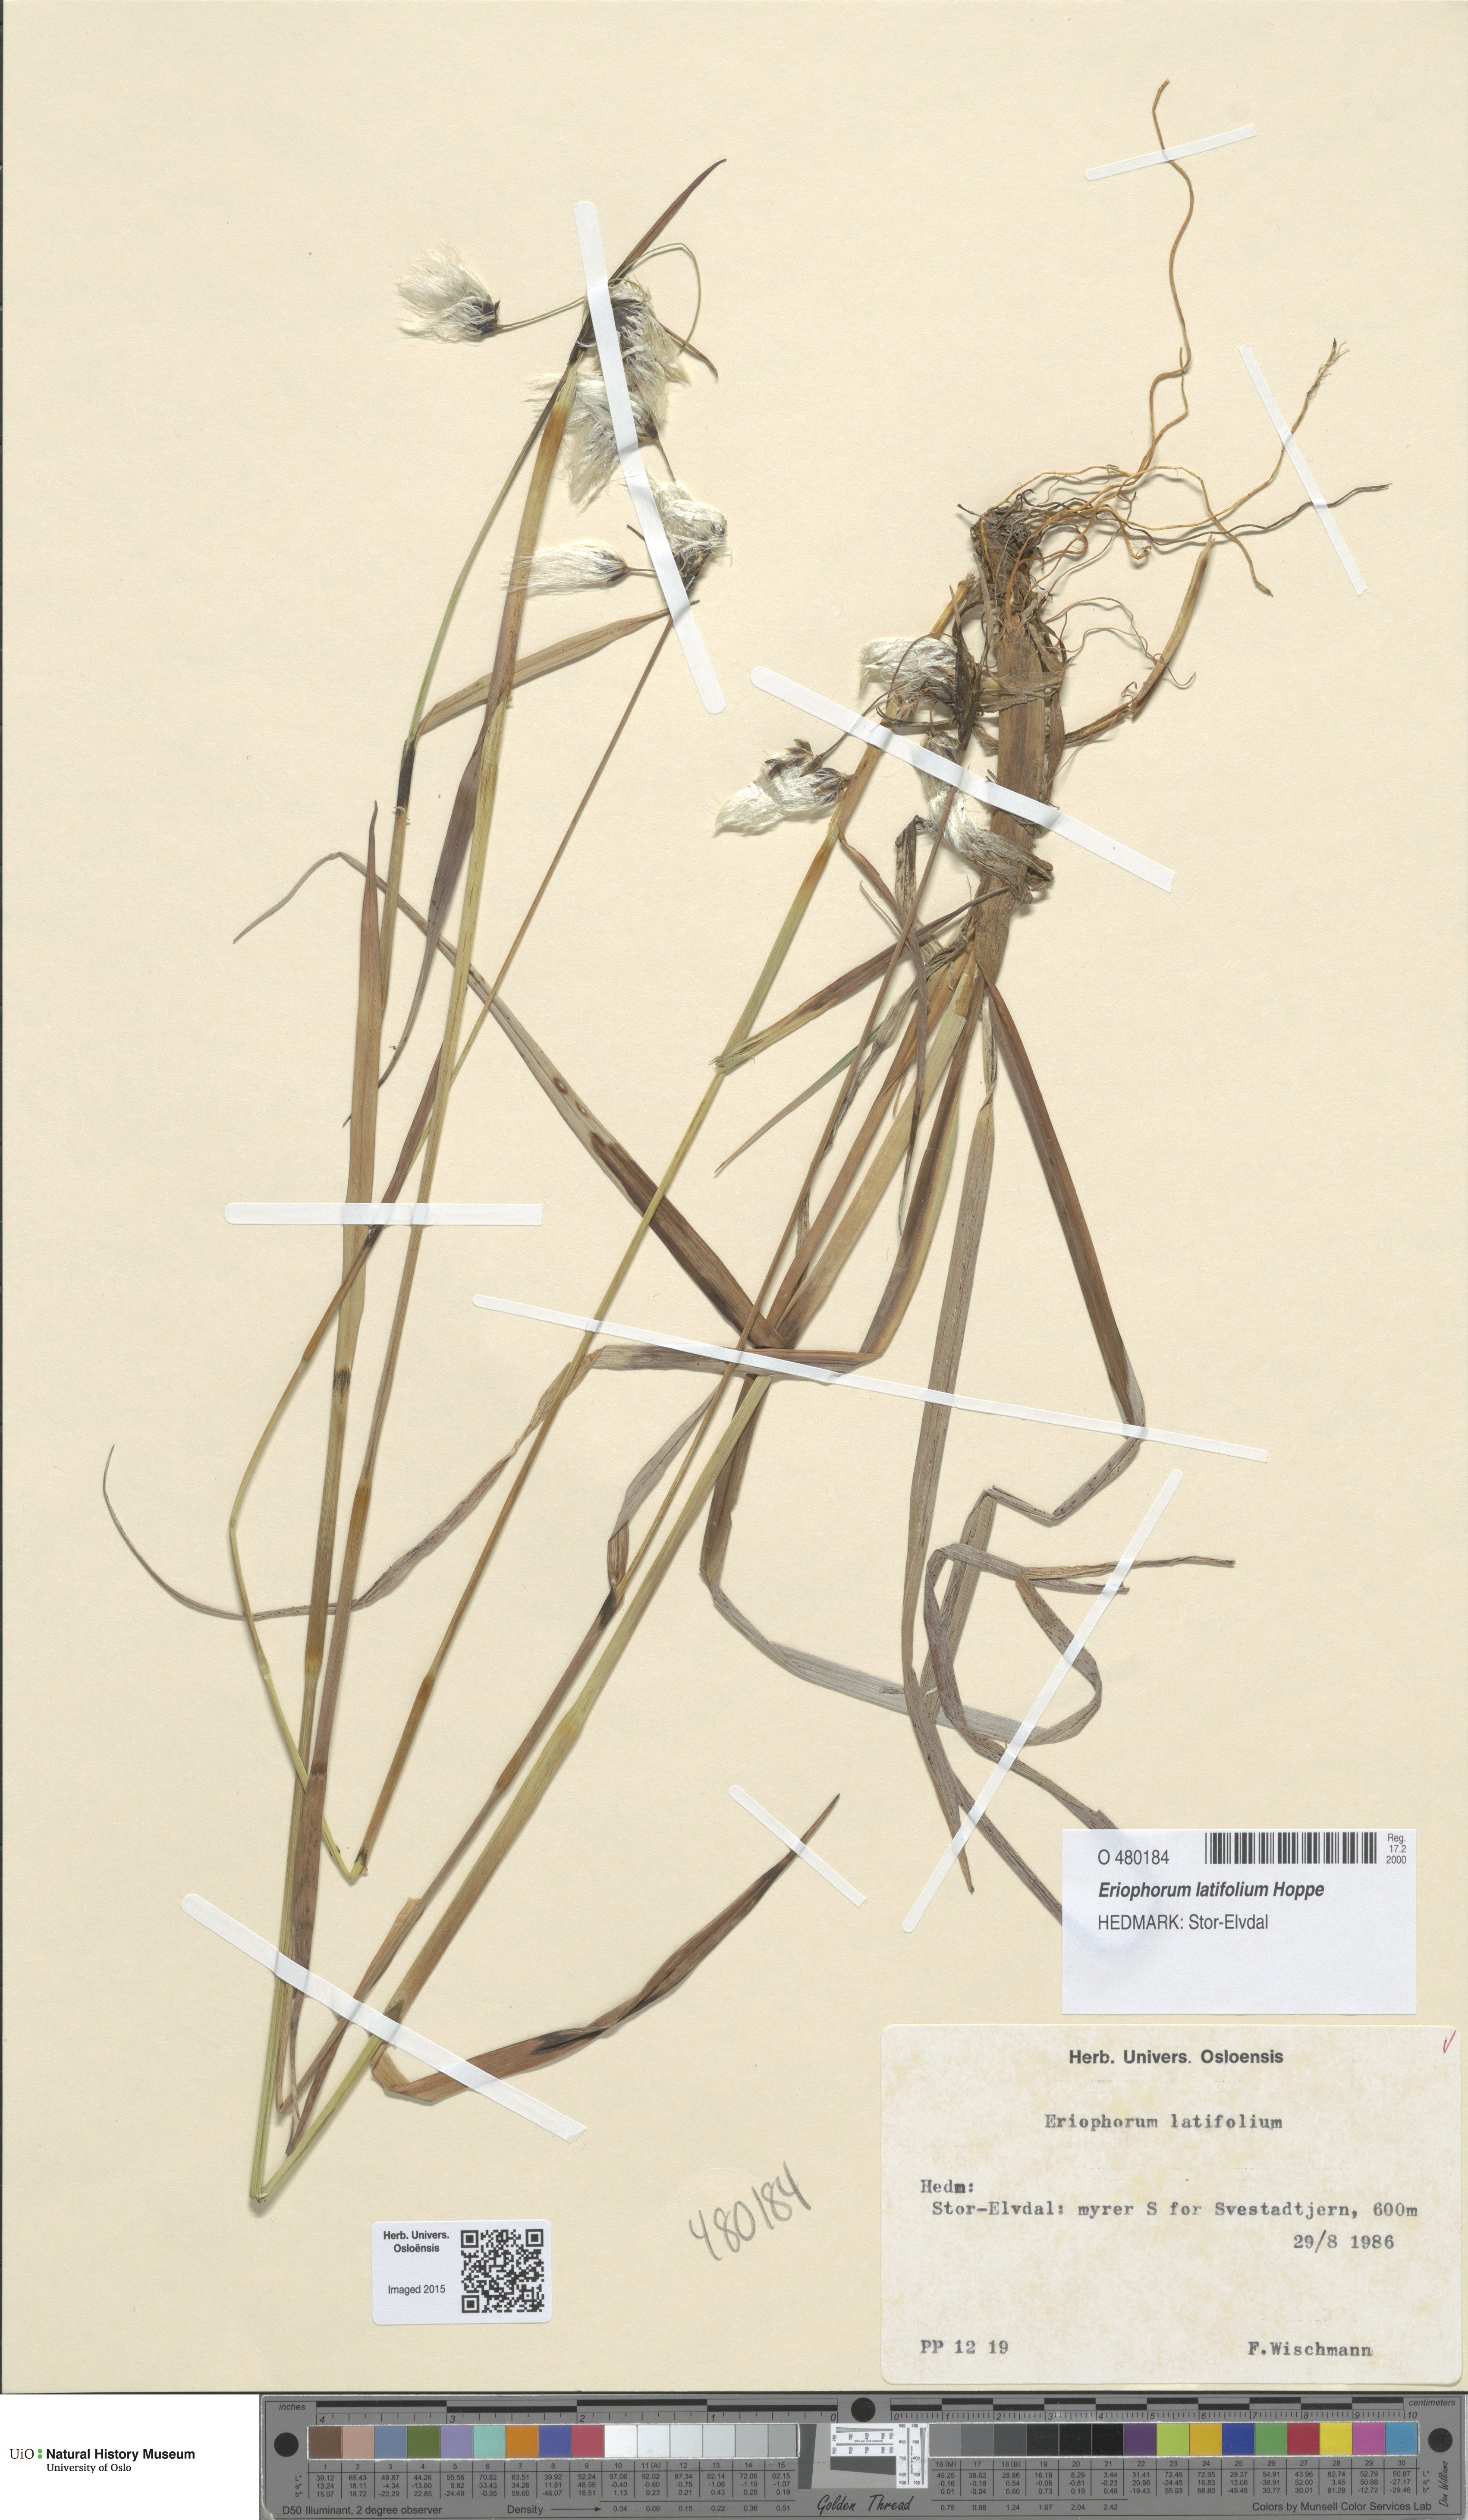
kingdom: Plantae
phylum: Tracheophyta
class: Liliopsida
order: Poales
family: Cyperaceae
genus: Eriophorum
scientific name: Eriophorum latifolium
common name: Broad-leaved cottongrass
